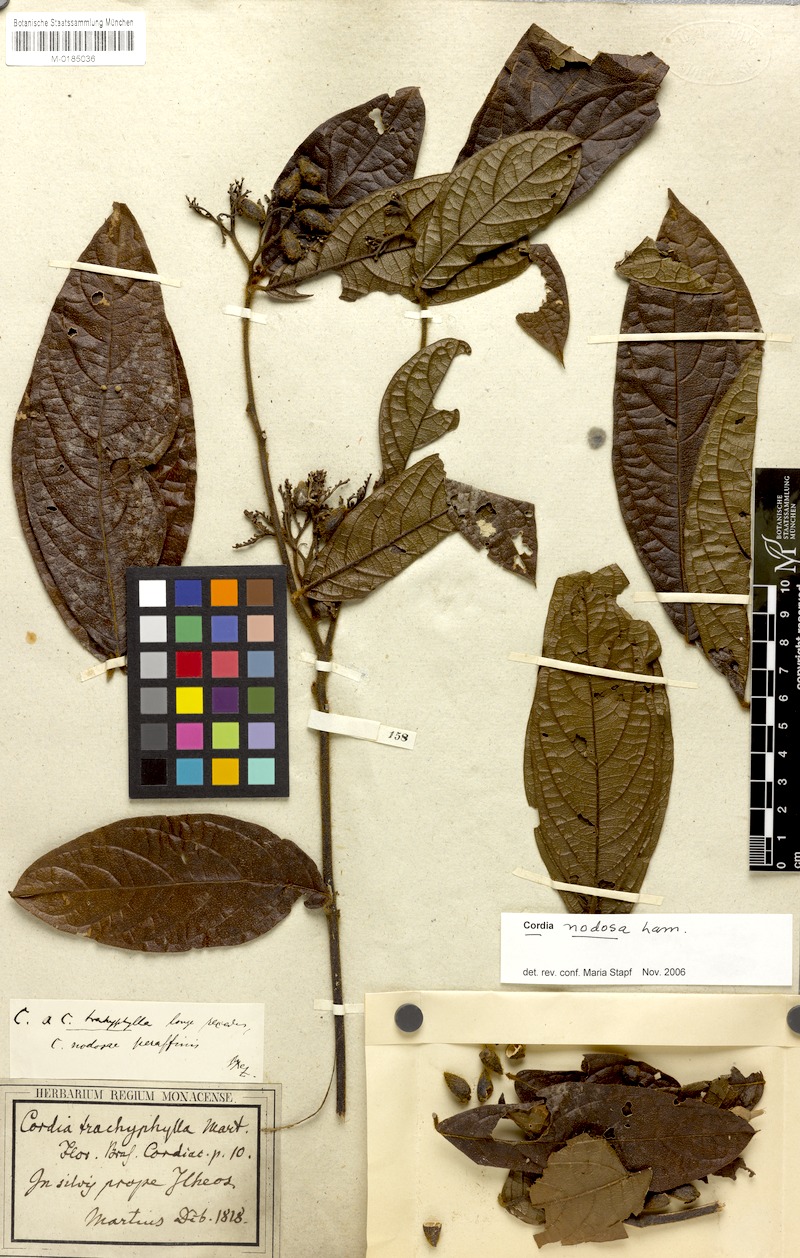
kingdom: Plantae
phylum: Tracheophyta
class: Magnoliopsida
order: Boraginales
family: Cordiaceae
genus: Cordia
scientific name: Cordia nodosa
